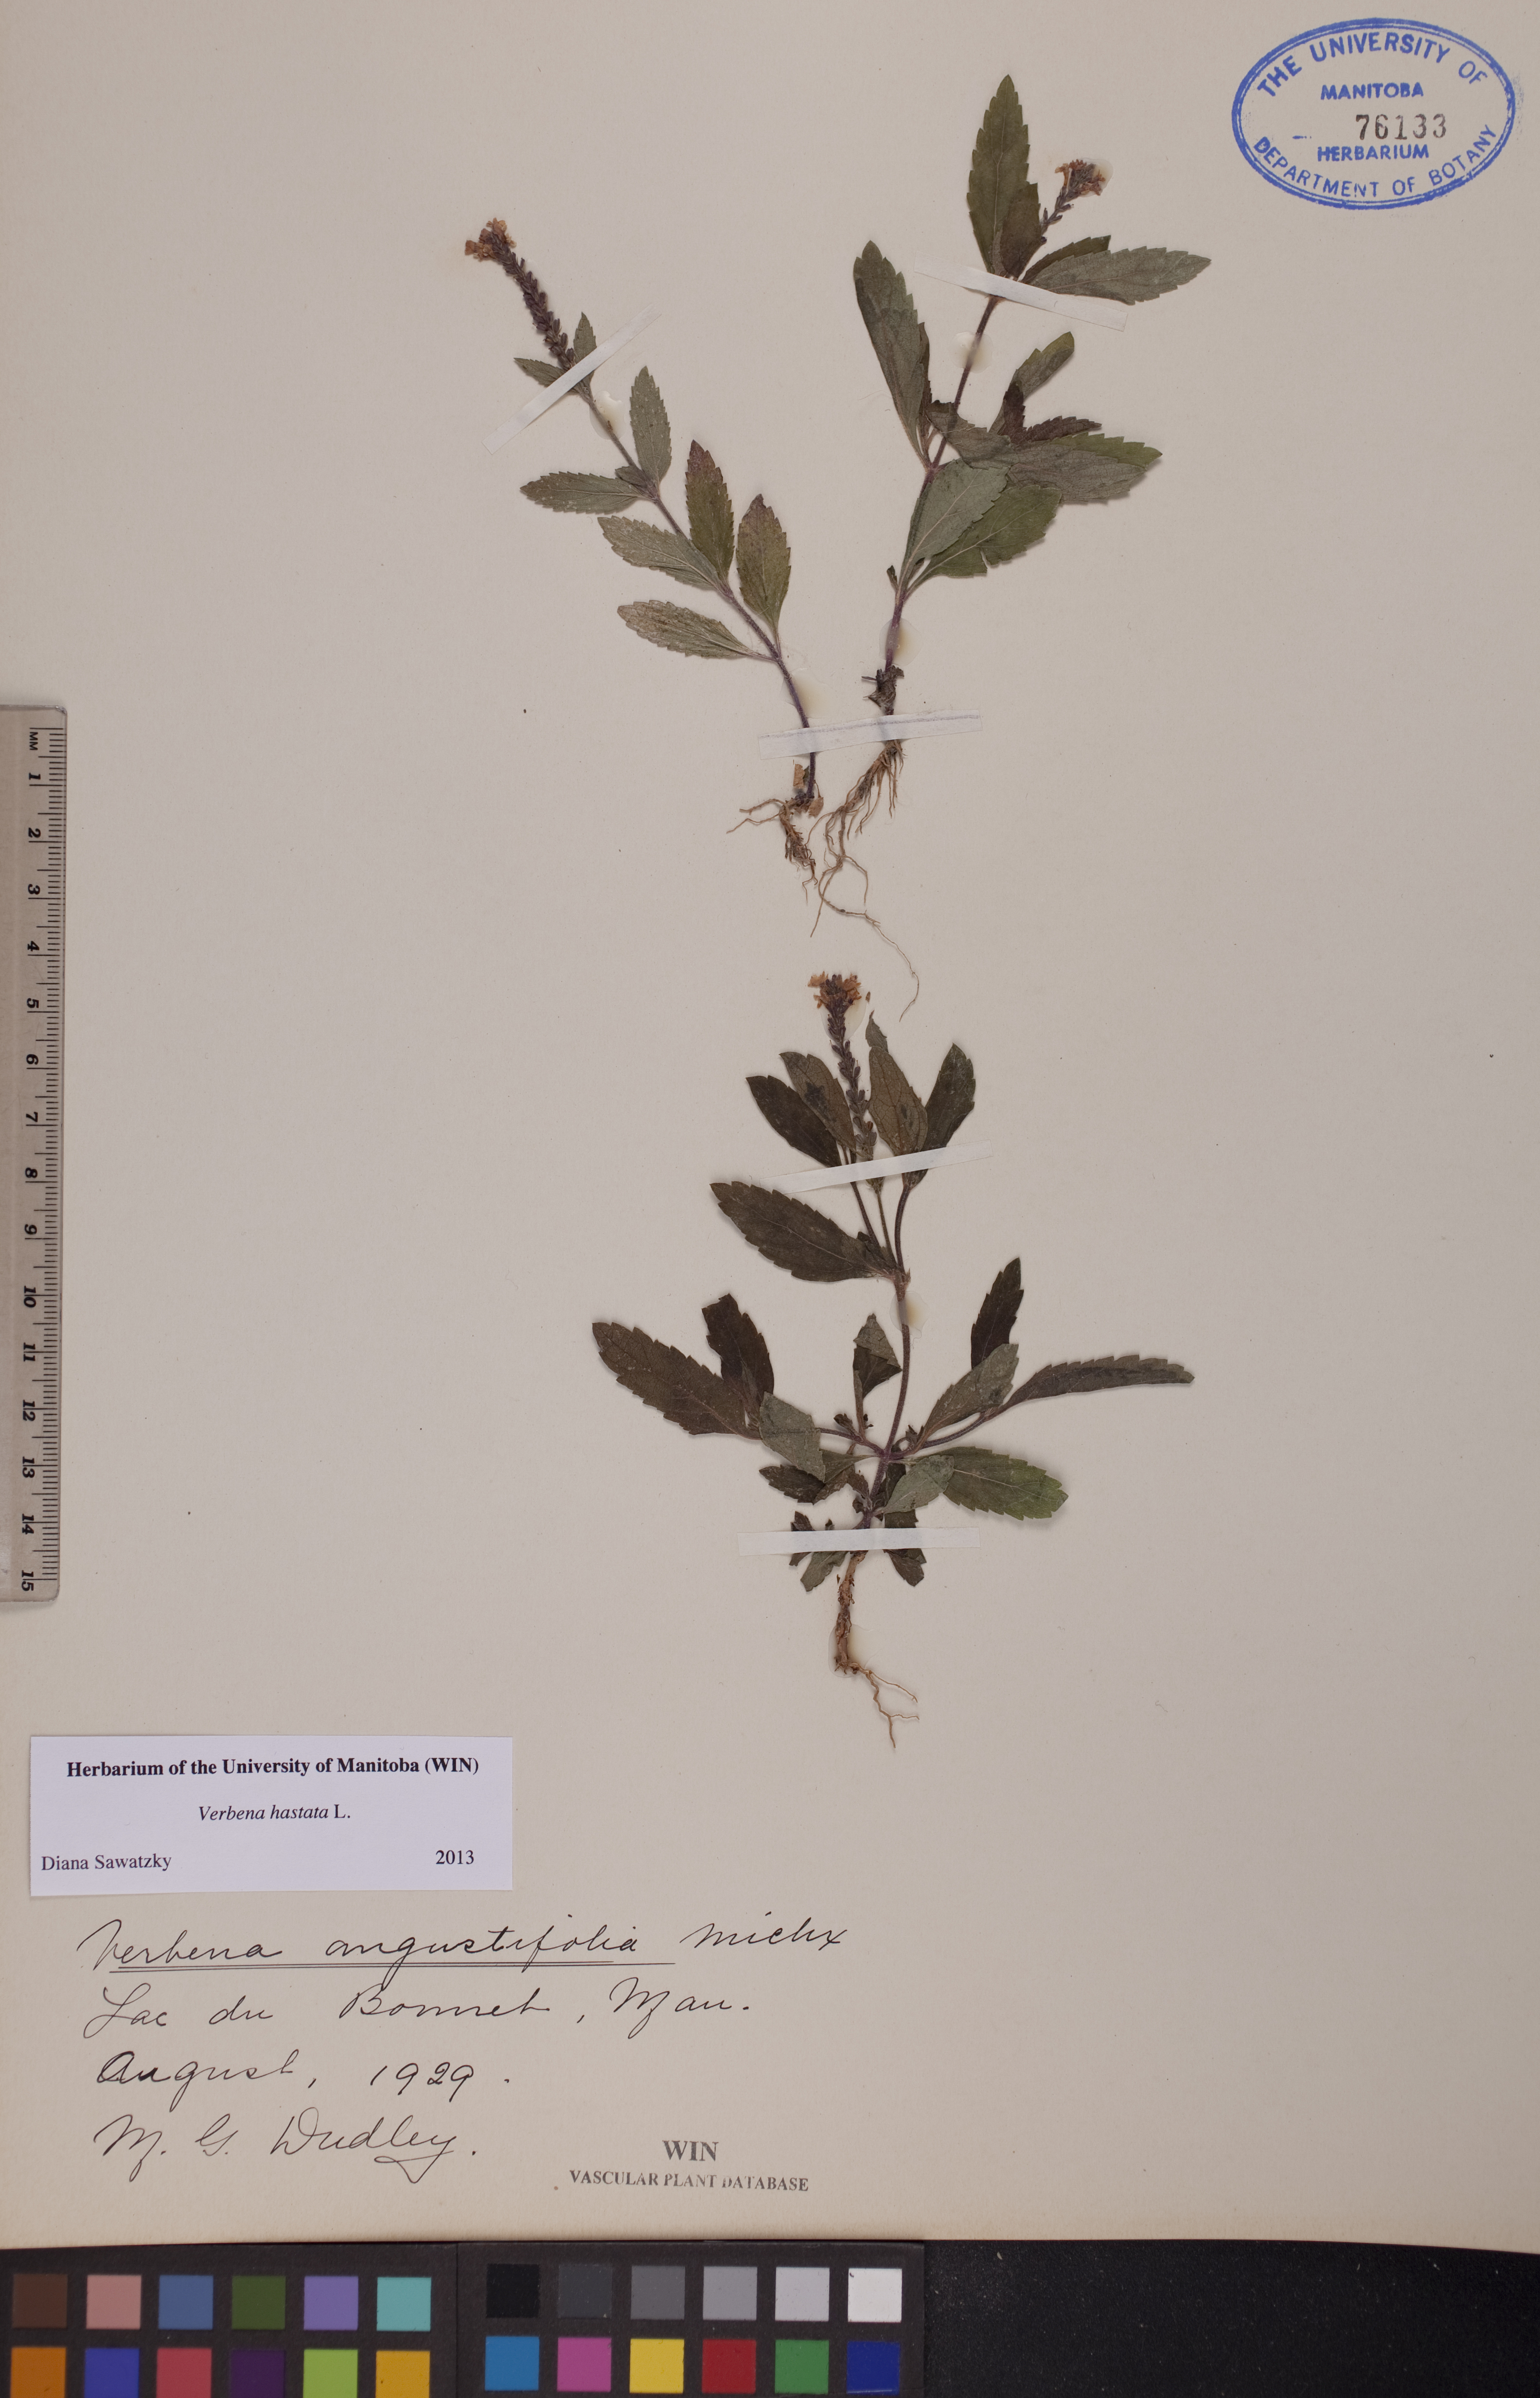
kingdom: Plantae
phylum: Tracheophyta
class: Magnoliopsida
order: Lamiales
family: Verbenaceae
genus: Verbena
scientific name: Verbena hastata
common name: American blue vervain
